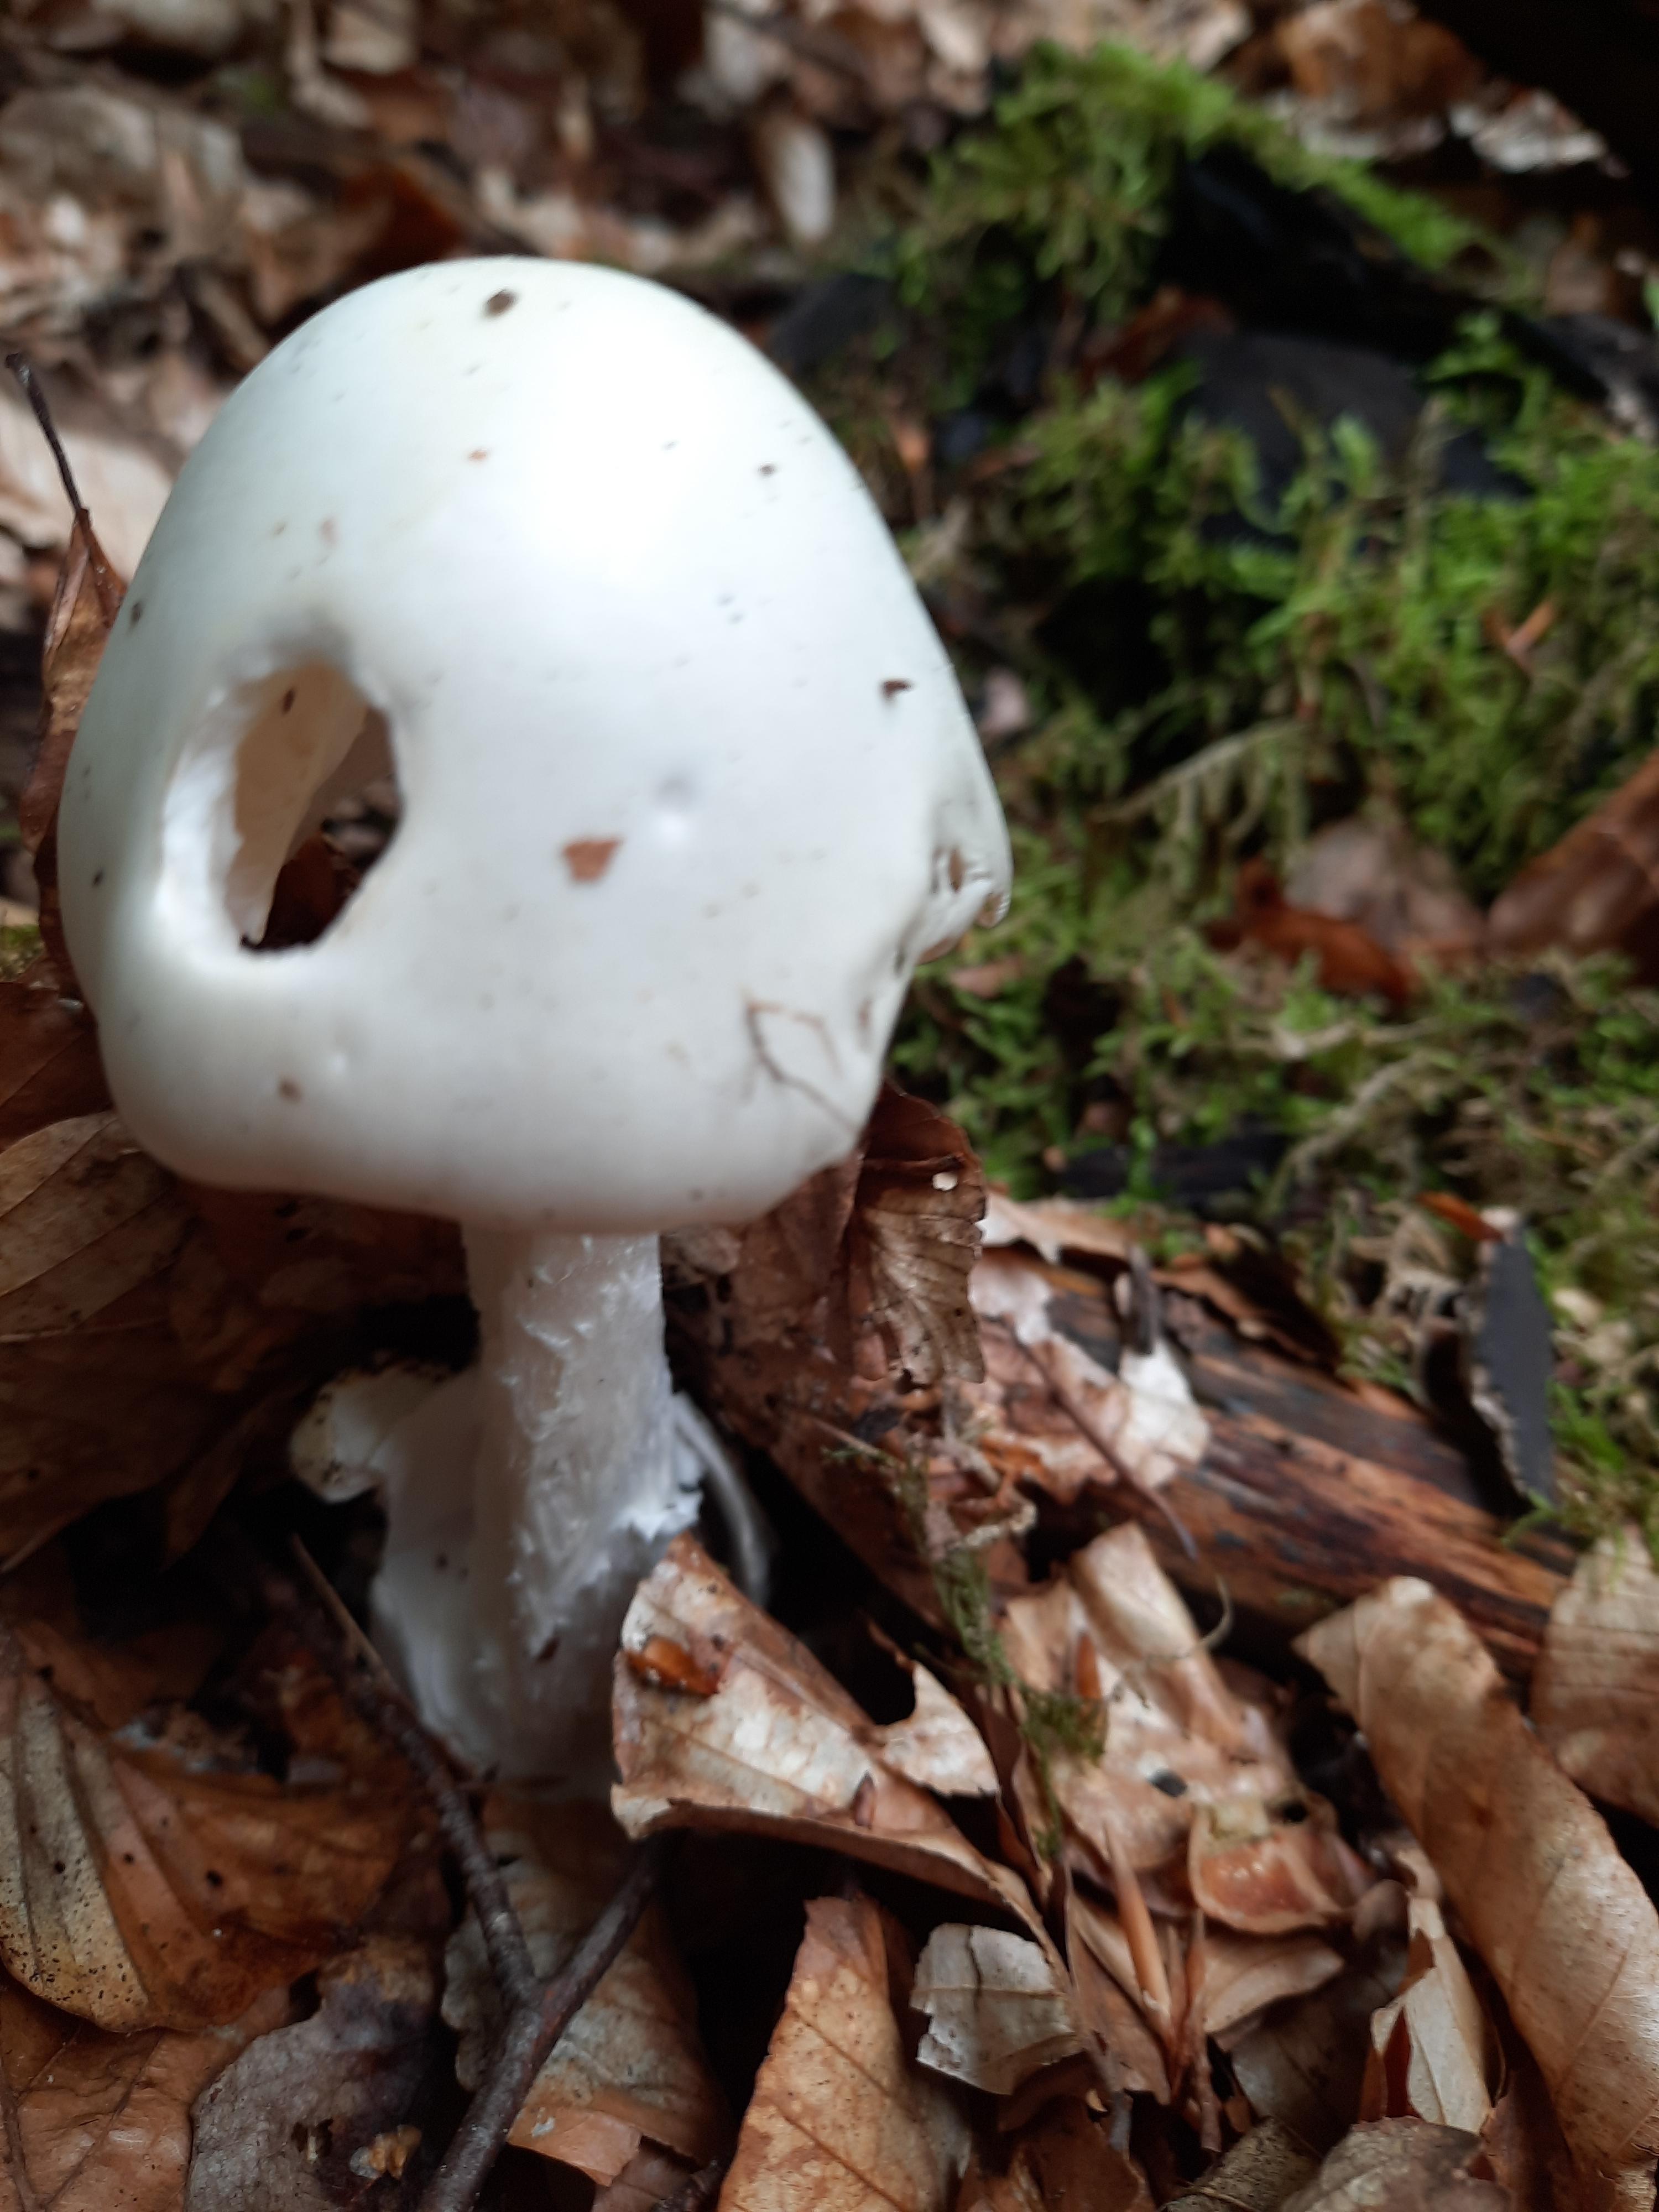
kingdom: Fungi
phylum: Basidiomycota
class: Agaricomycetes
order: Agaricales
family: Amanitaceae
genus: Amanita
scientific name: Amanita virosa
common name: snehvid fluesvamp
